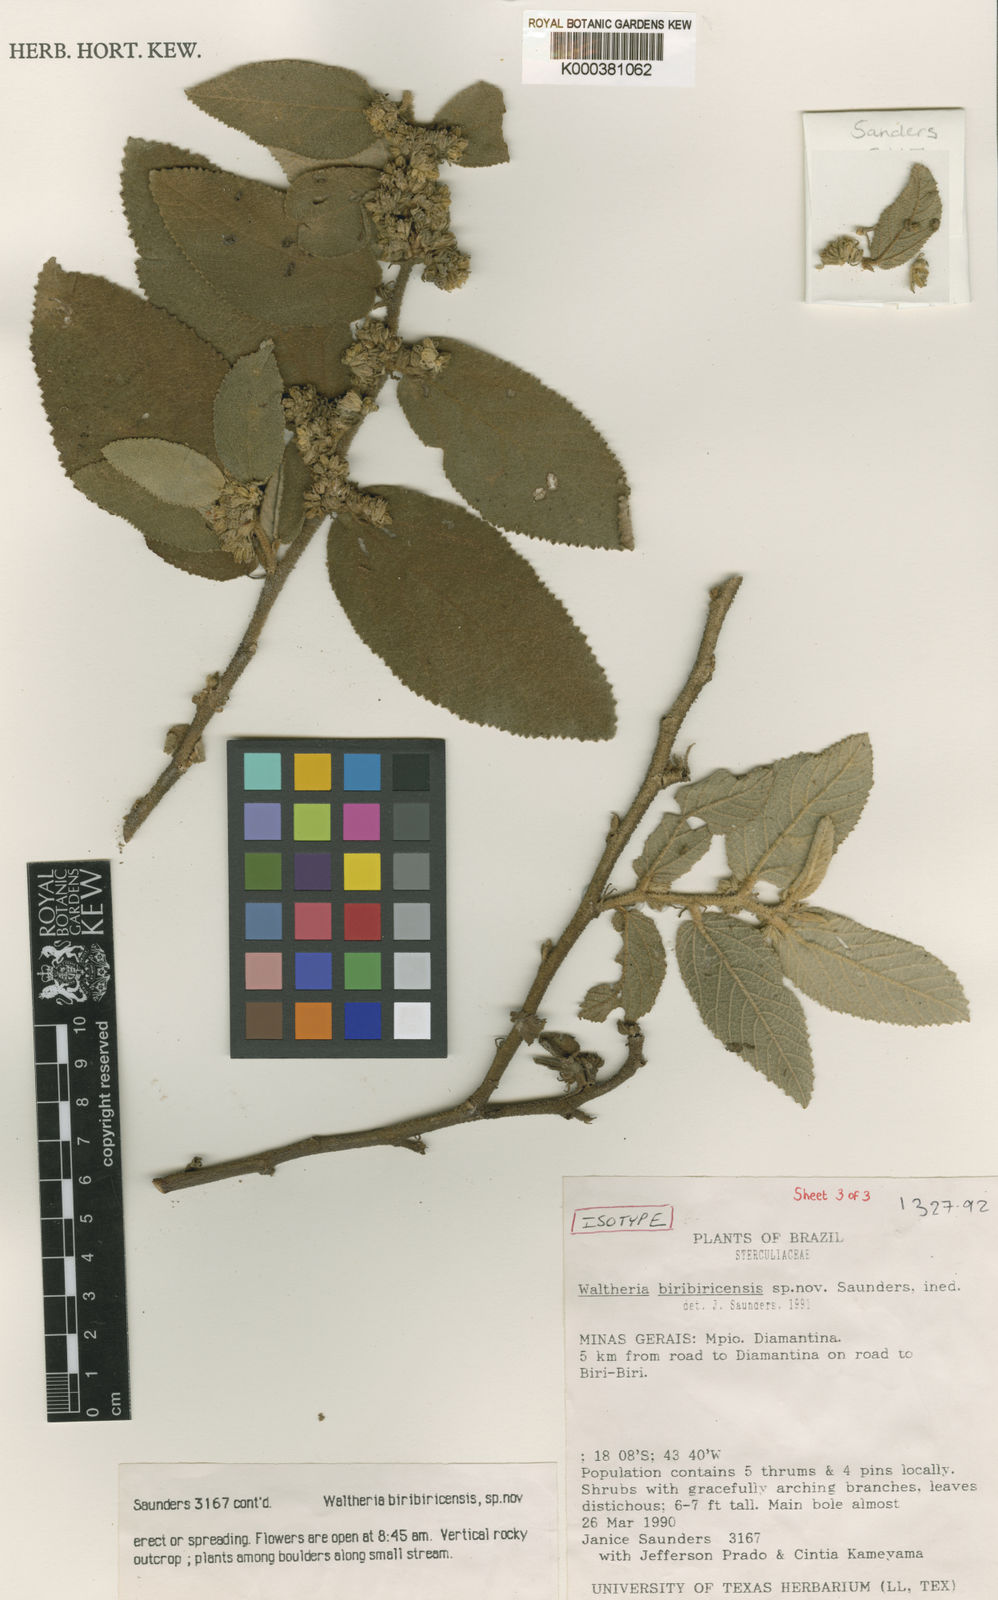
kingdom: Plantae
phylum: Tracheophyta
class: Magnoliopsida
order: Malvales
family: Malvaceae
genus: Waltheria
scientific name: Waltheria
